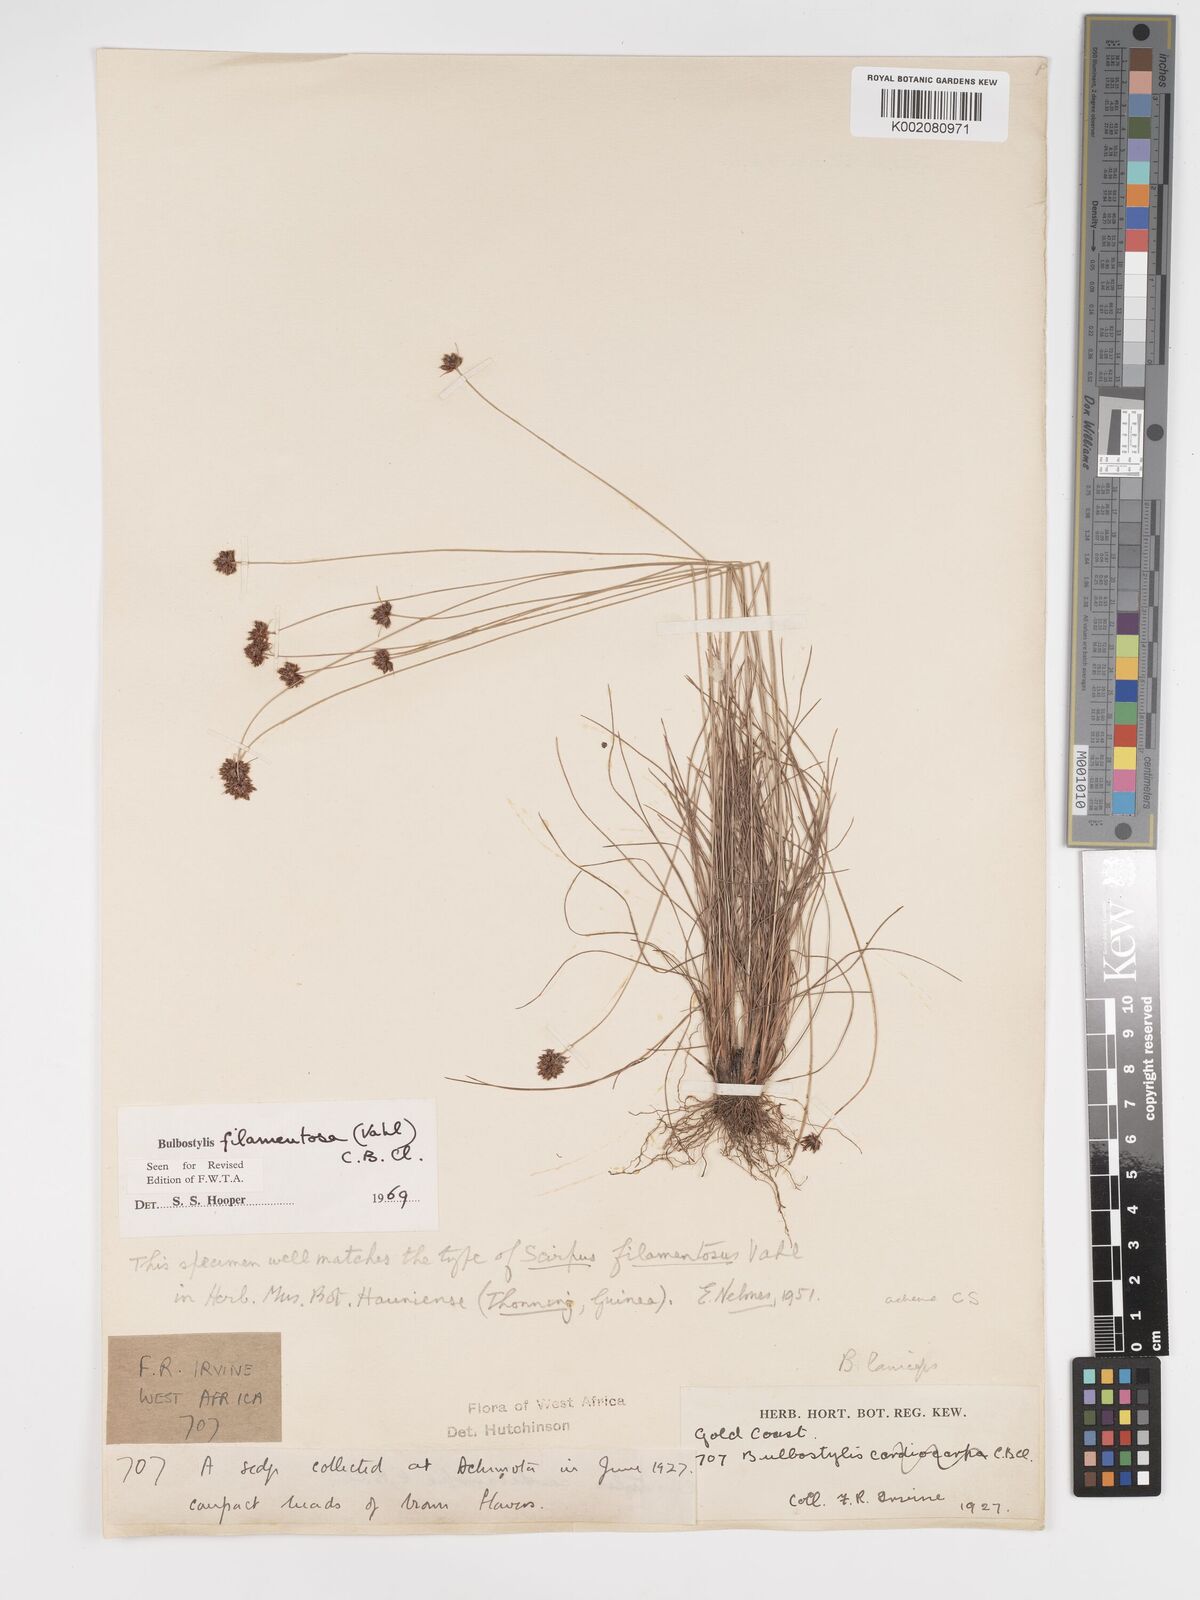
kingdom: Plantae
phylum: Tracheophyta
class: Liliopsida
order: Poales
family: Cyperaceae
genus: Bulbostylis
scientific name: Bulbostylis filamentosa
